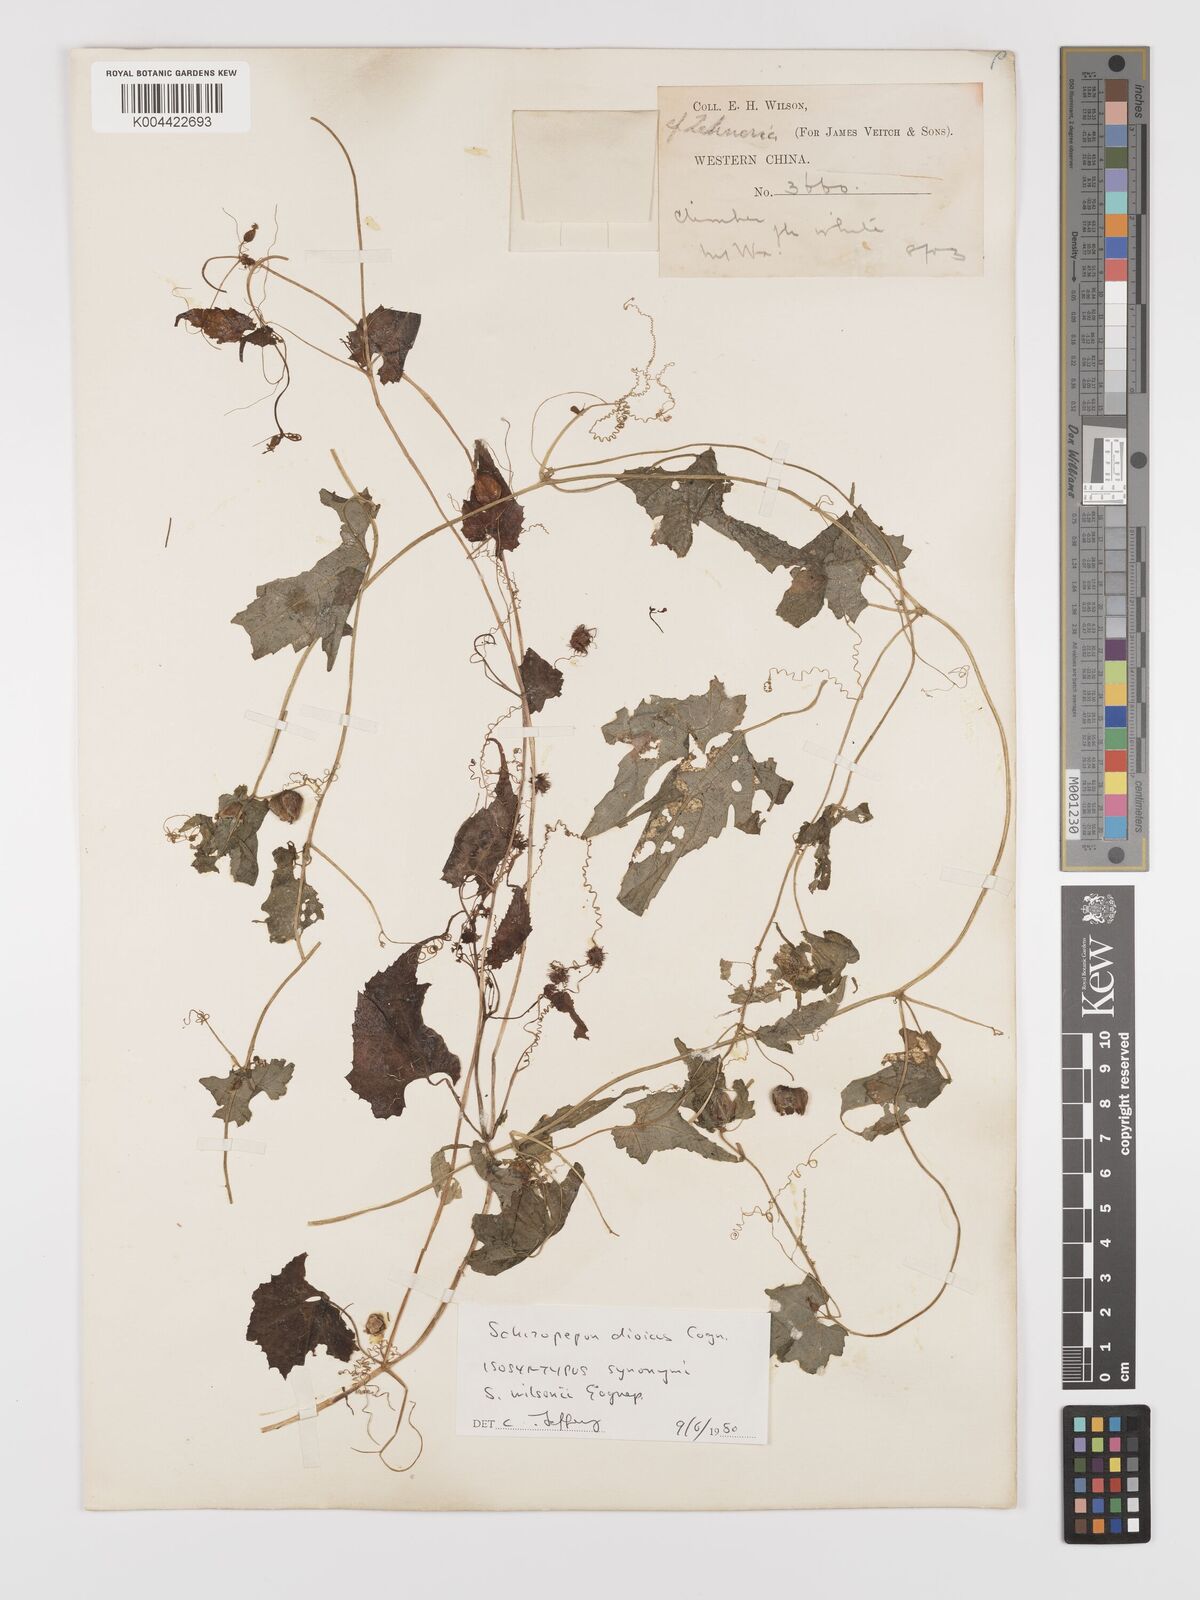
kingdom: Plantae
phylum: Tracheophyta
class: Magnoliopsida
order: Cucurbitales
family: Cucurbitaceae
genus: Schizopepon
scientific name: Schizopepon dioicus
